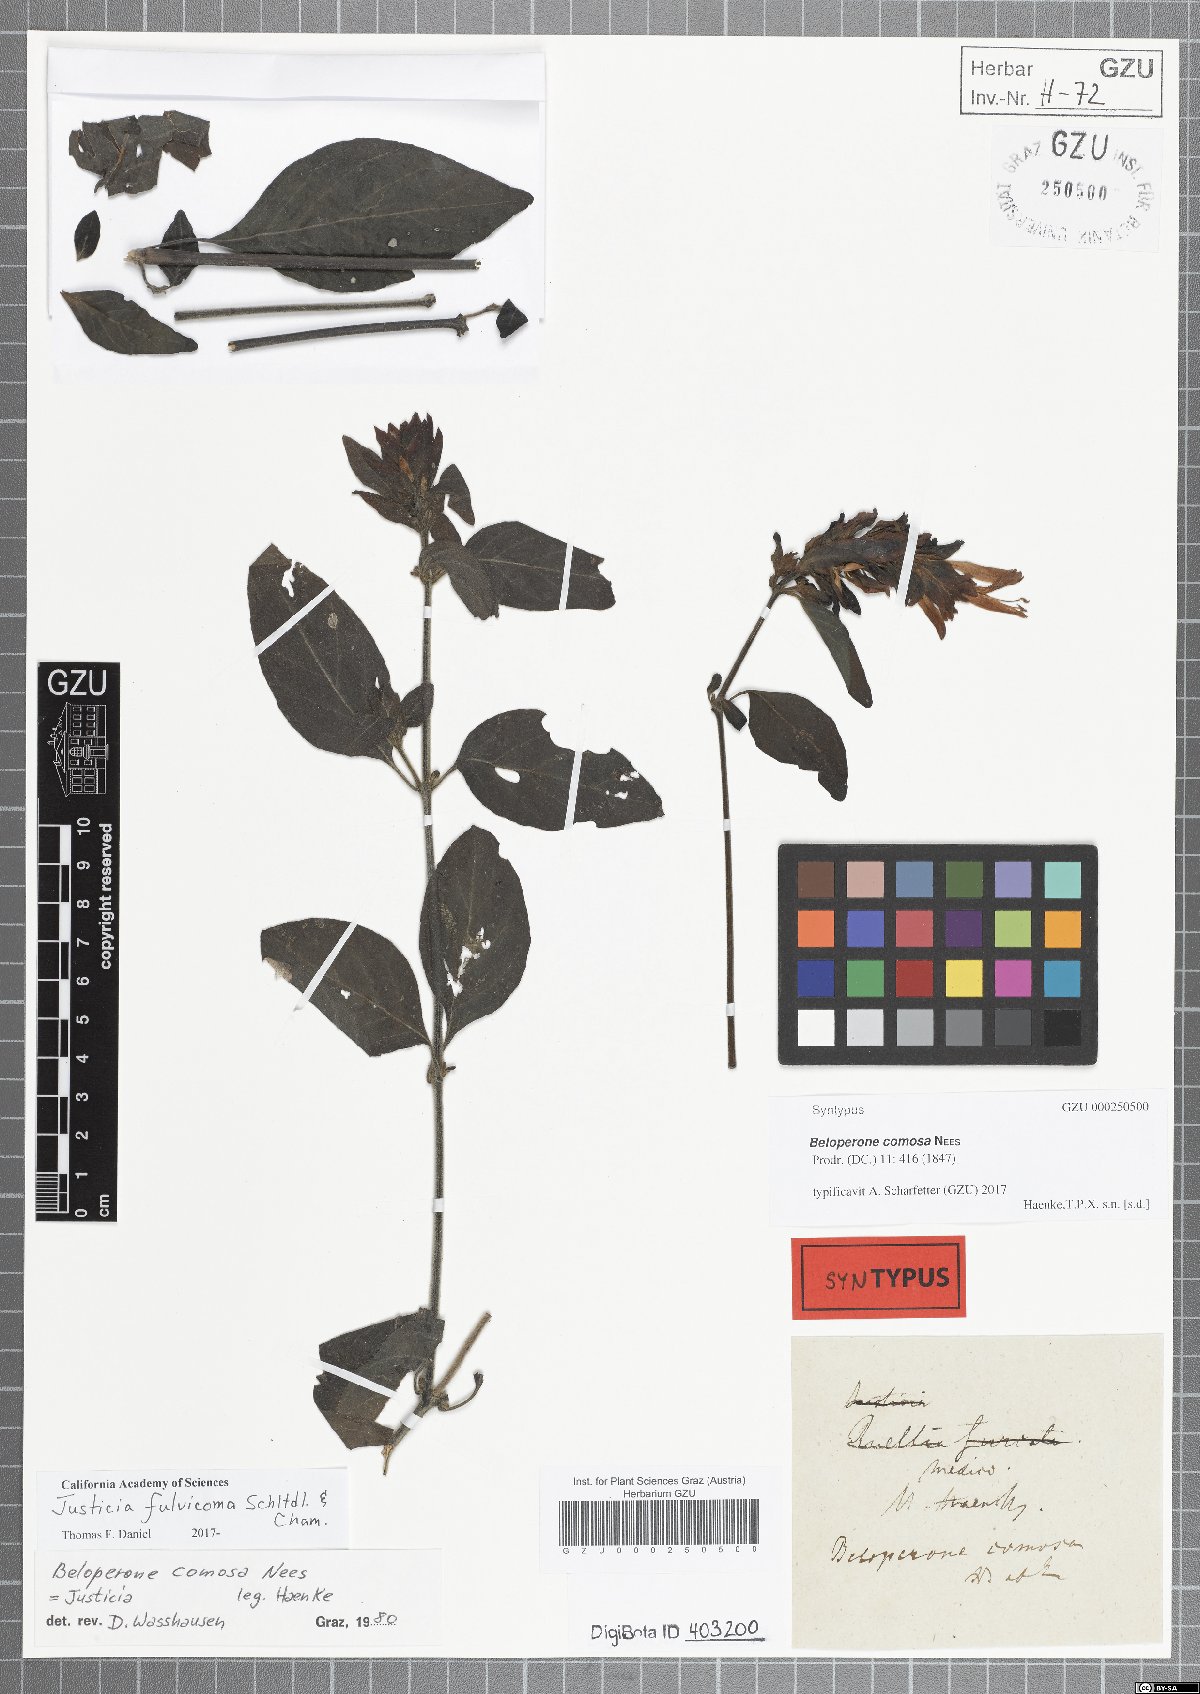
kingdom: Plantae
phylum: Tracheophyta
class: Magnoliopsida
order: Lamiales
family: Acanthaceae
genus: Justicia
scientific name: Justicia fulvicoma
